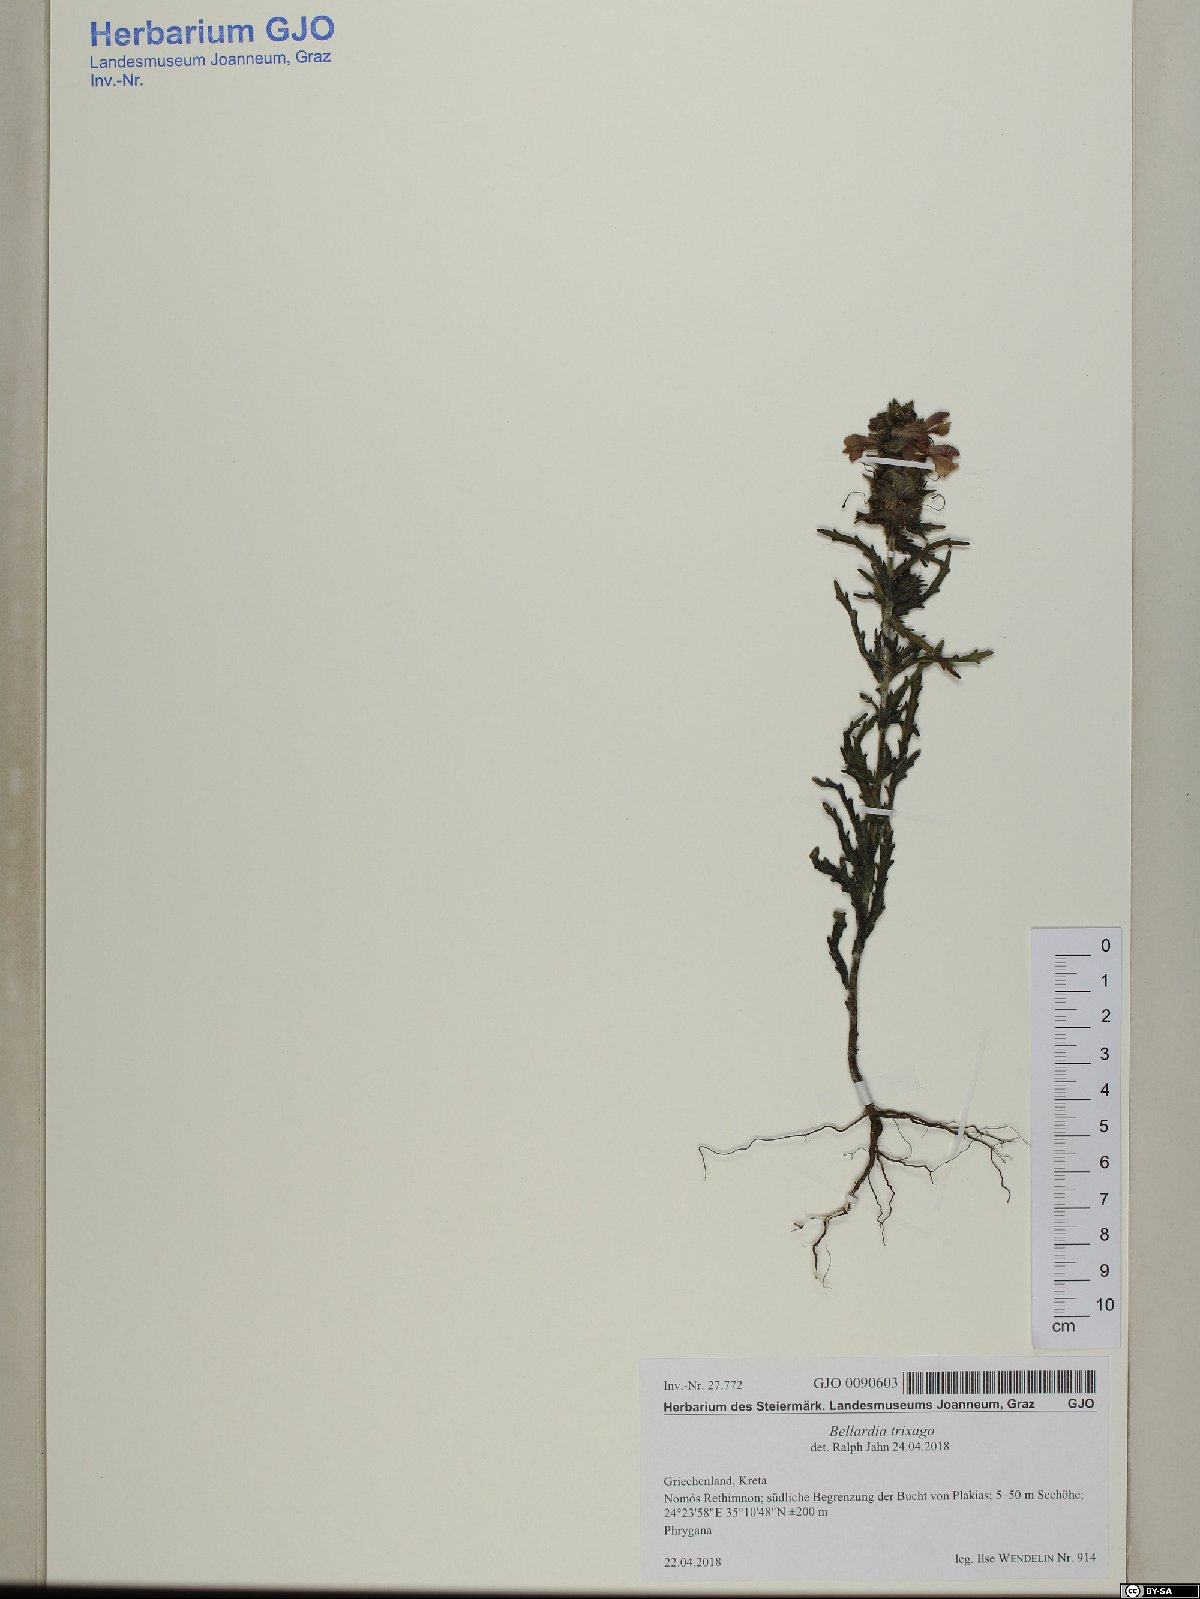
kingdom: Plantae
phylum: Tracheophyta
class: Magnoliopsida
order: Lamiales
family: Orobanchaceae
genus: Bellardia
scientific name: Bellardia trixago
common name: Mediterranean lineseed
